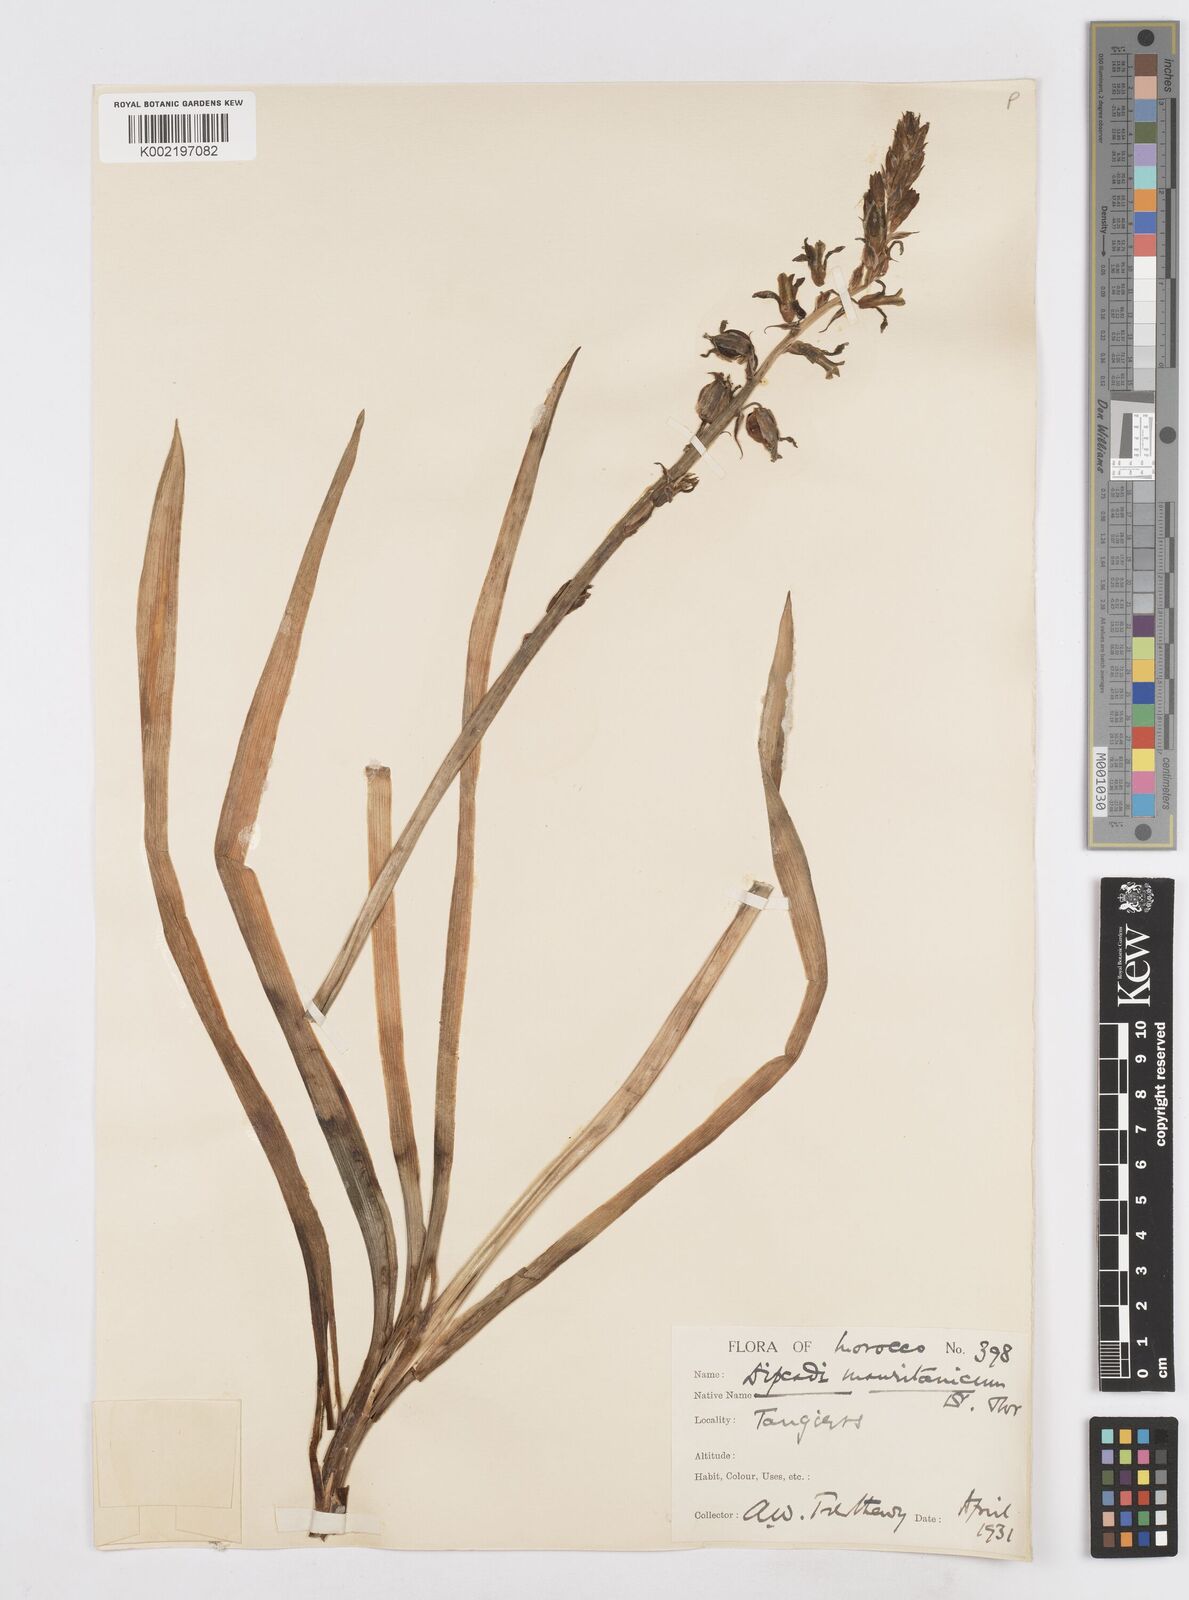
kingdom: Plantae
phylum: Tracheophyta
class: Liliopsida
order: Asparagales
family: Asparagaceae
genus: Dipcadi
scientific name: Dipcadi serotinum
